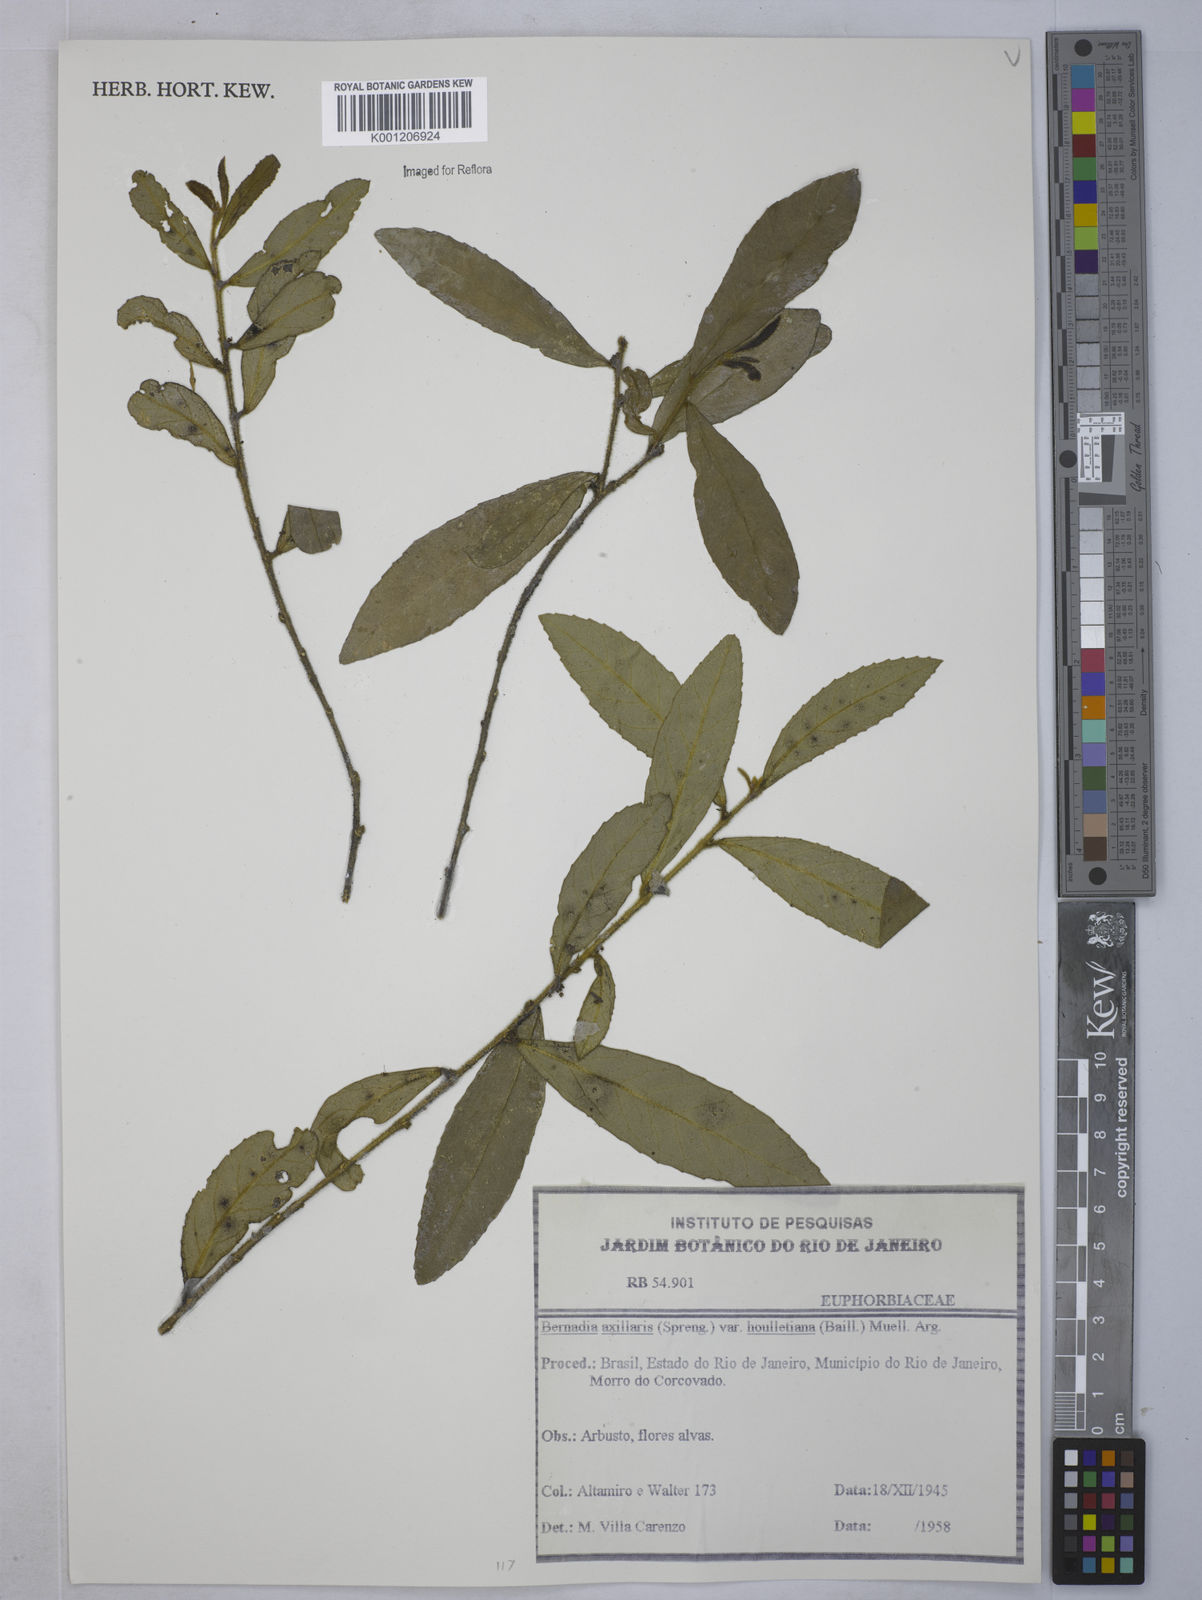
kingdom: Plantae
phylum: Tracheophyta
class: Magnoliopsida
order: Malpighiales
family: Euphorbiaceae
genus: Bernardia
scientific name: Bernardia
